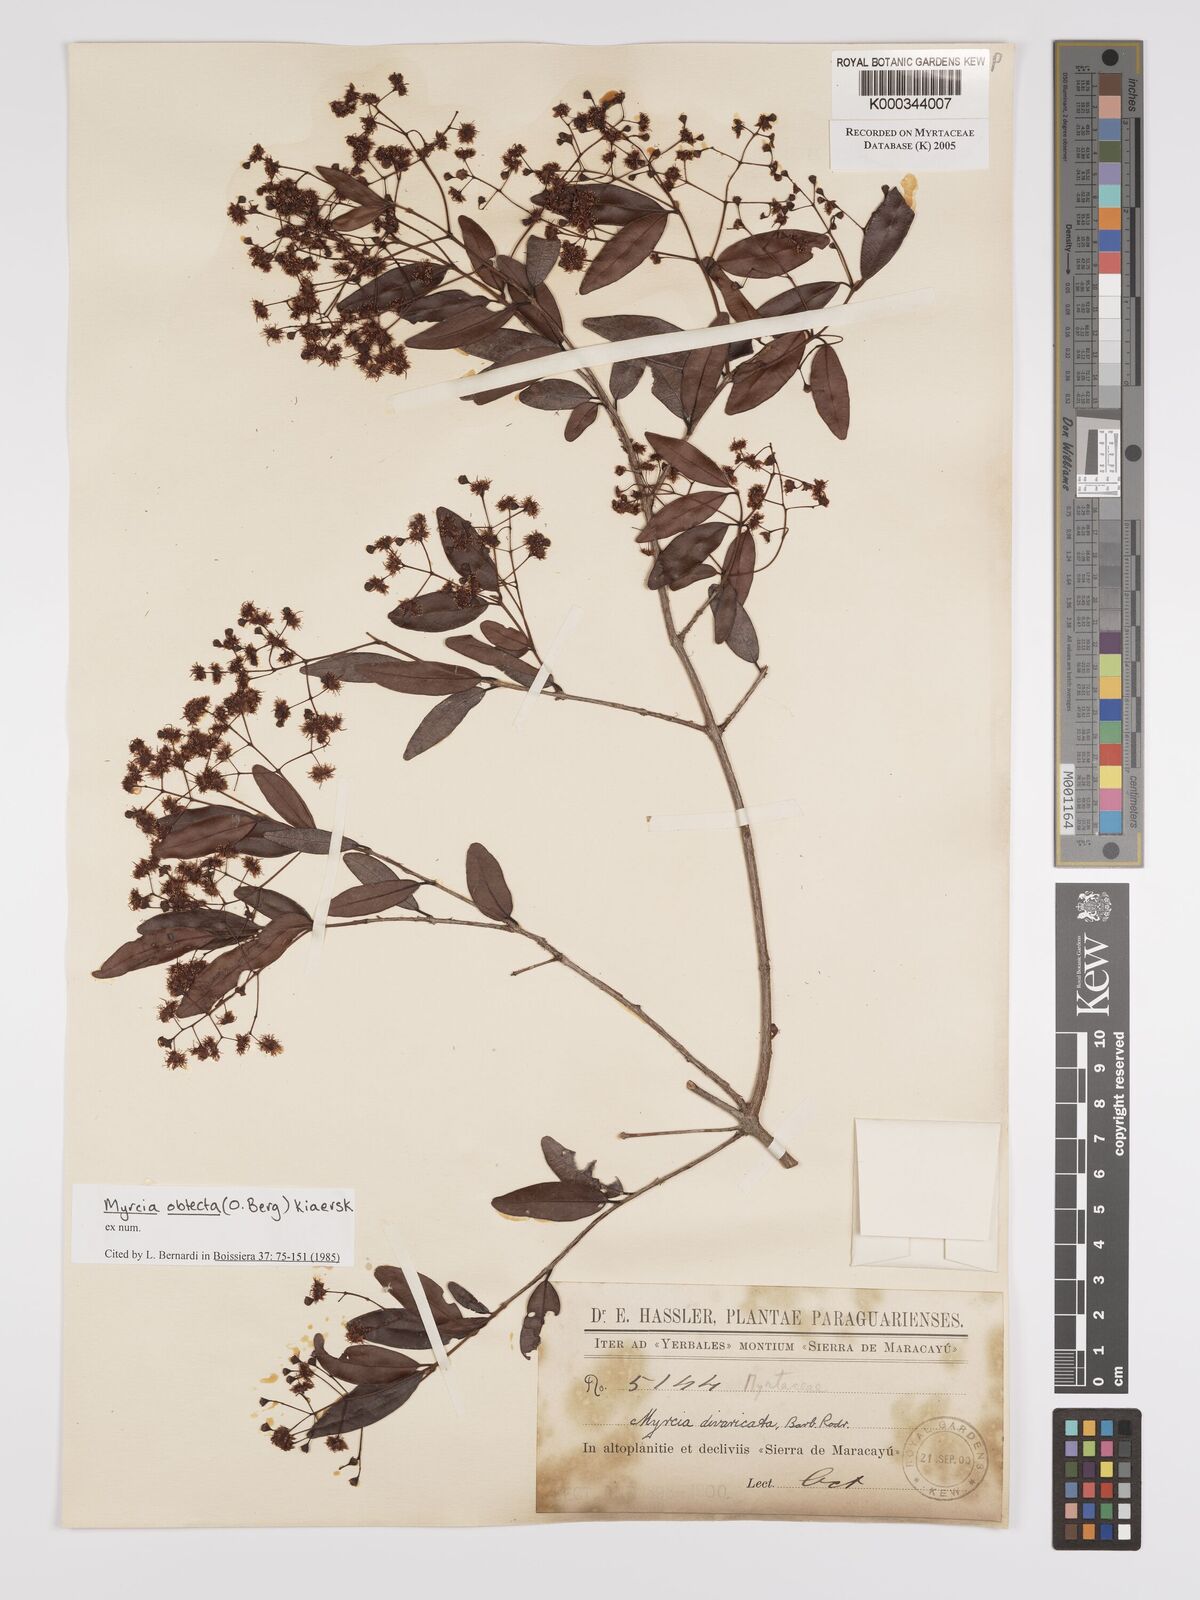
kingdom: Plantae
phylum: Tracheophyta
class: Magnoliopsida
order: Myrtales
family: Myrtaceae
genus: Myrcia
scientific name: Myrcia guianensis
